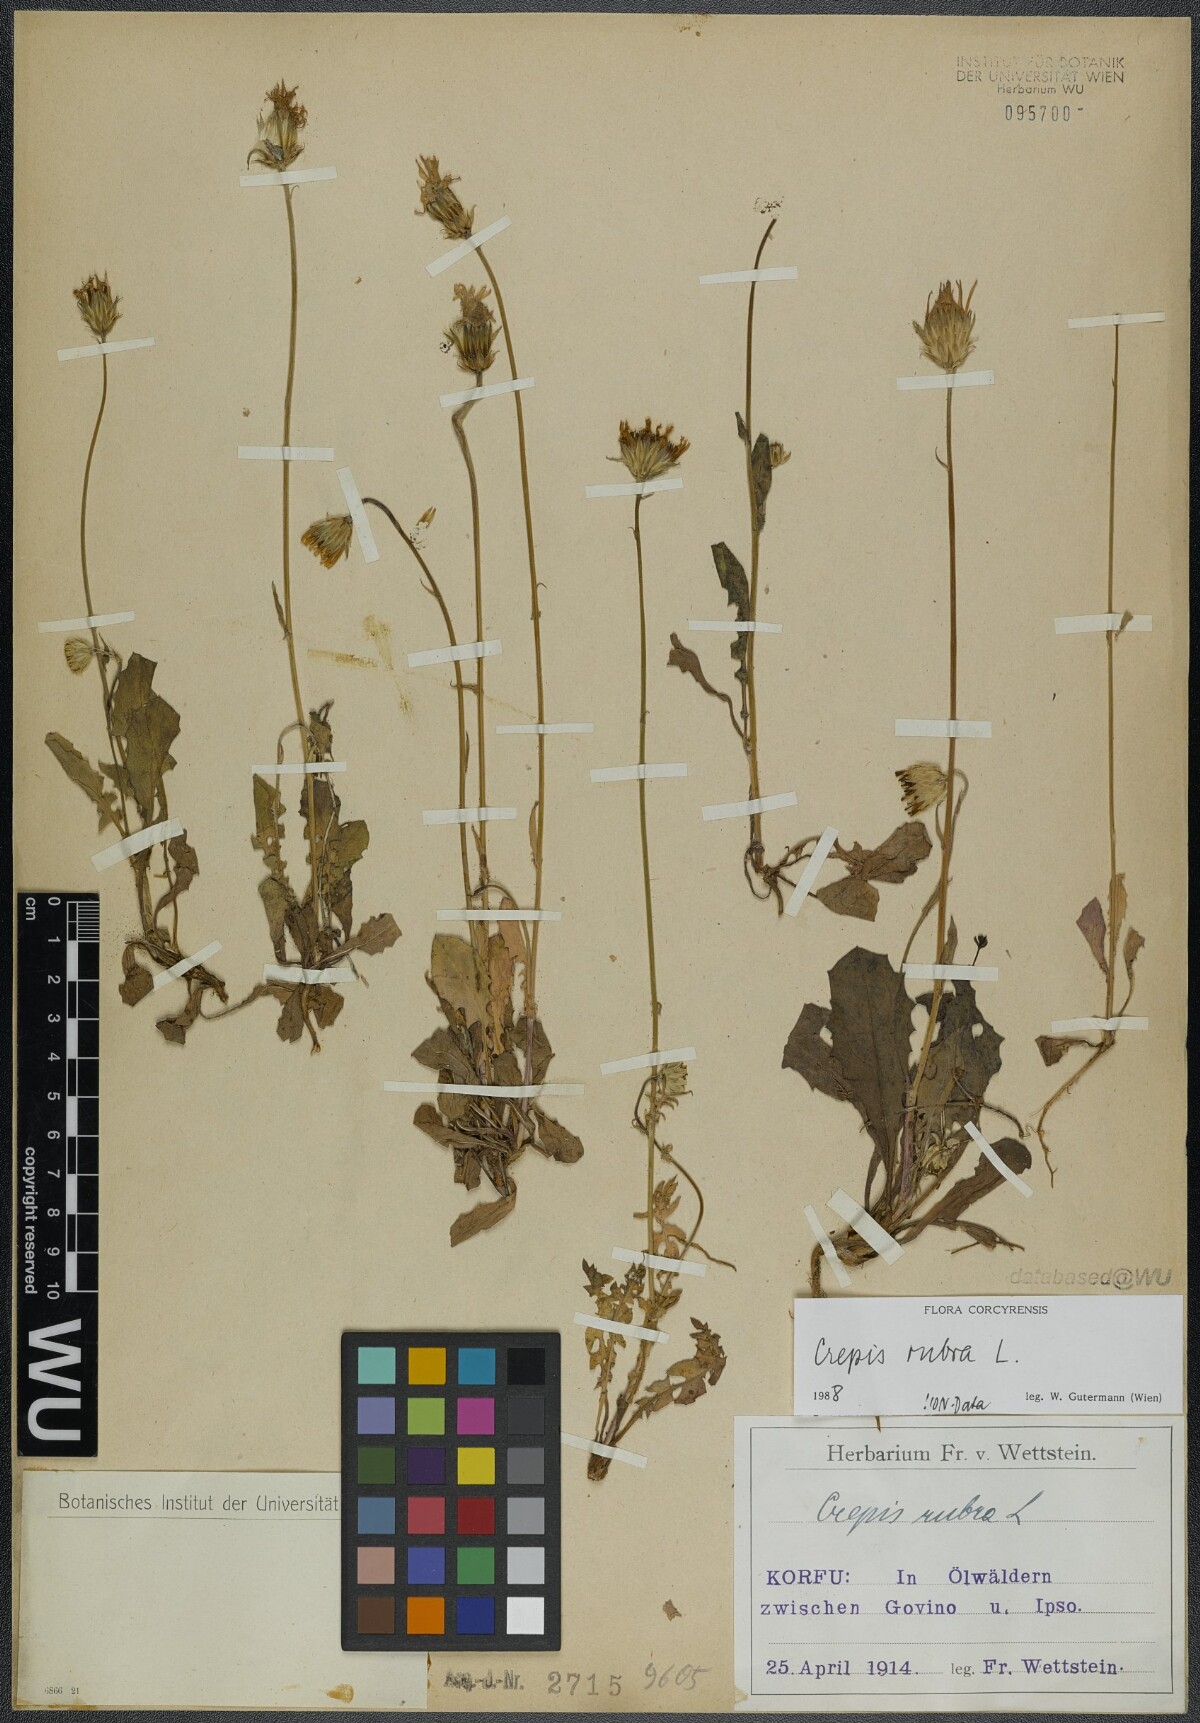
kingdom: Plantae
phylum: Tracheophyta
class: Magnoliopsida
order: Asterales
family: Asteraceae
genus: Crepis
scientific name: Crepis rubra
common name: Pink hawk's-beard
